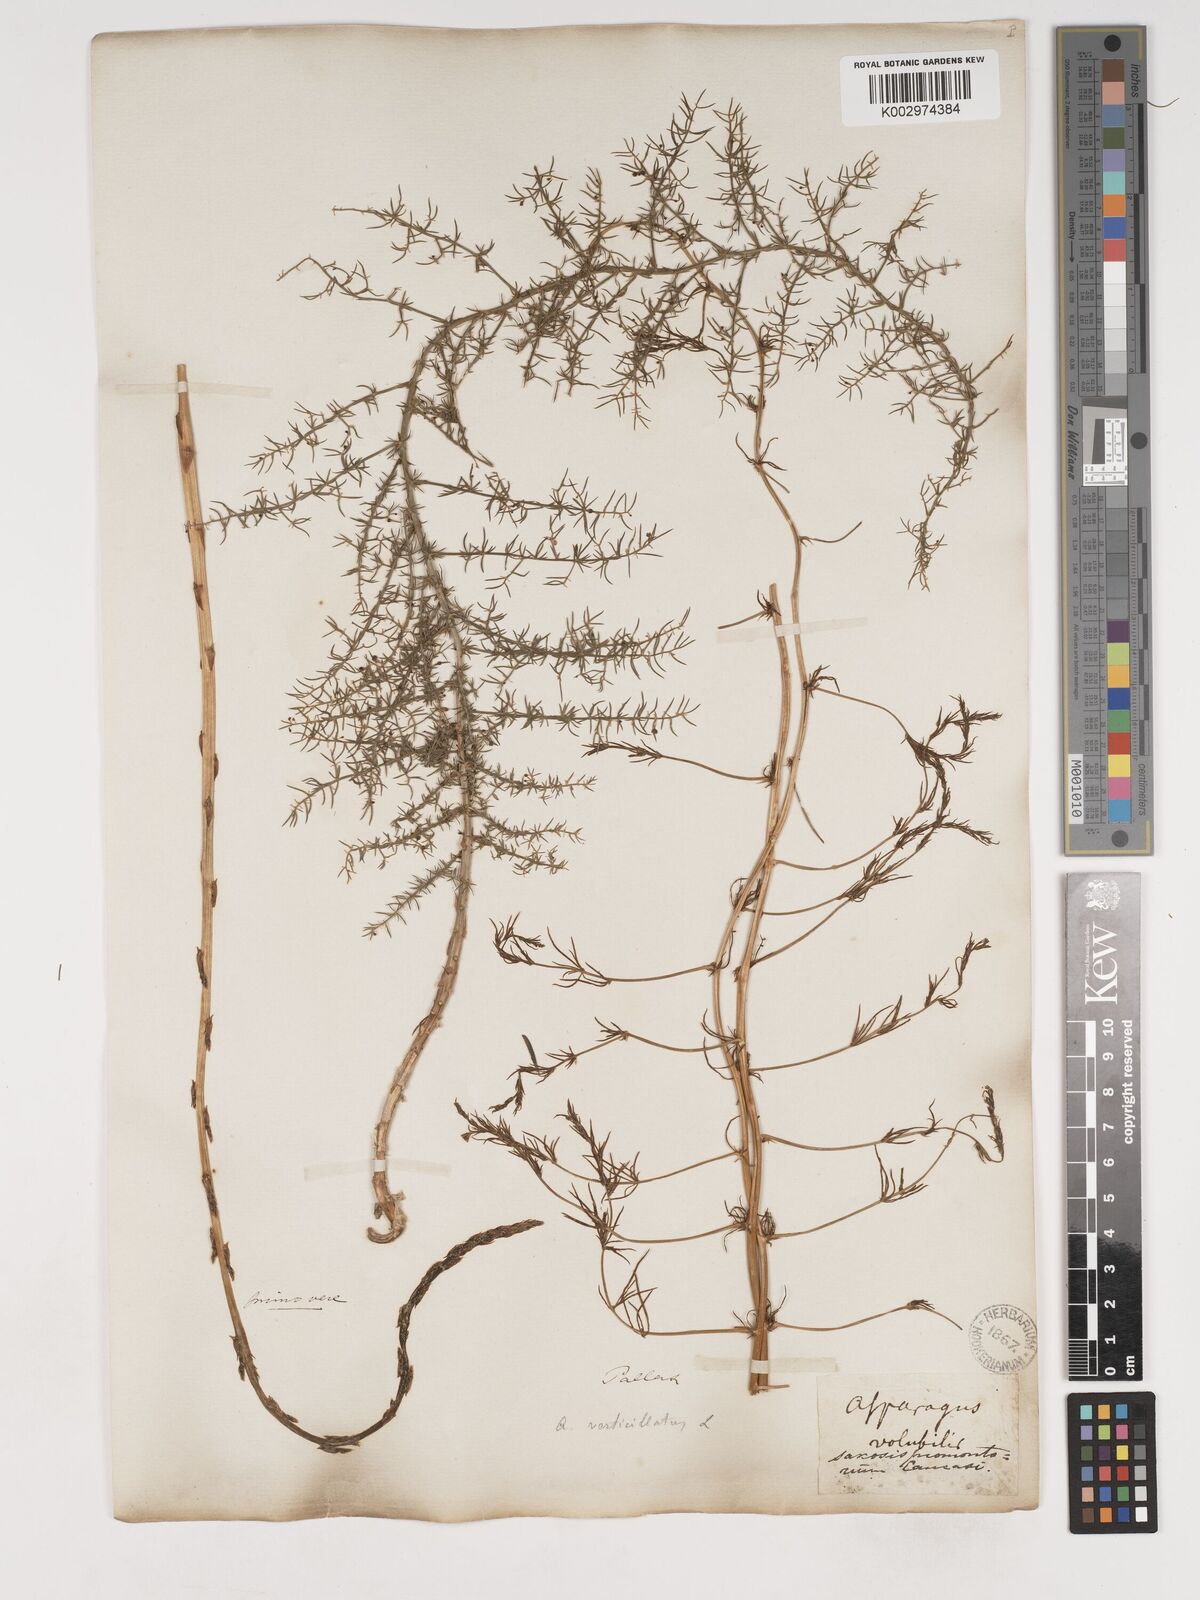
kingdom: Plantae
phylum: Tracheophyta
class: Liliopsida
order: Asparagales
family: Asparagaceae
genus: Asparagus
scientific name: Asparagus verticillatus
